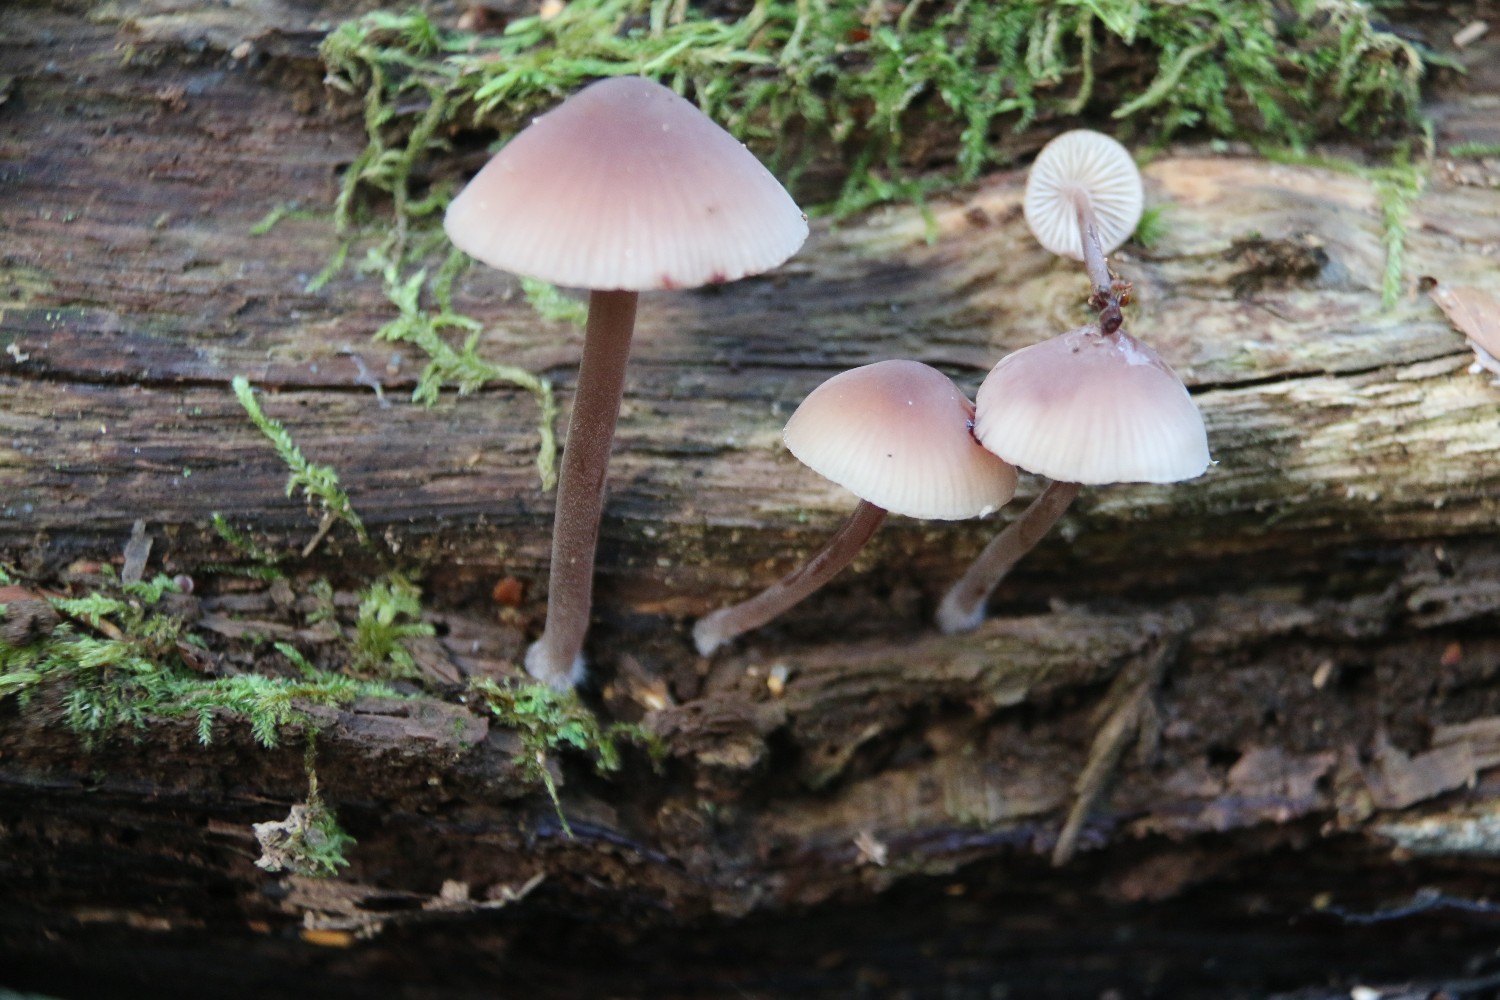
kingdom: Fungi
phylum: Basidiomycota
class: Agaricomycetes
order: Agaricales
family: Mycenaceae
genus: Mycena
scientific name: Mycena haematopus
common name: blødende huesvamp
